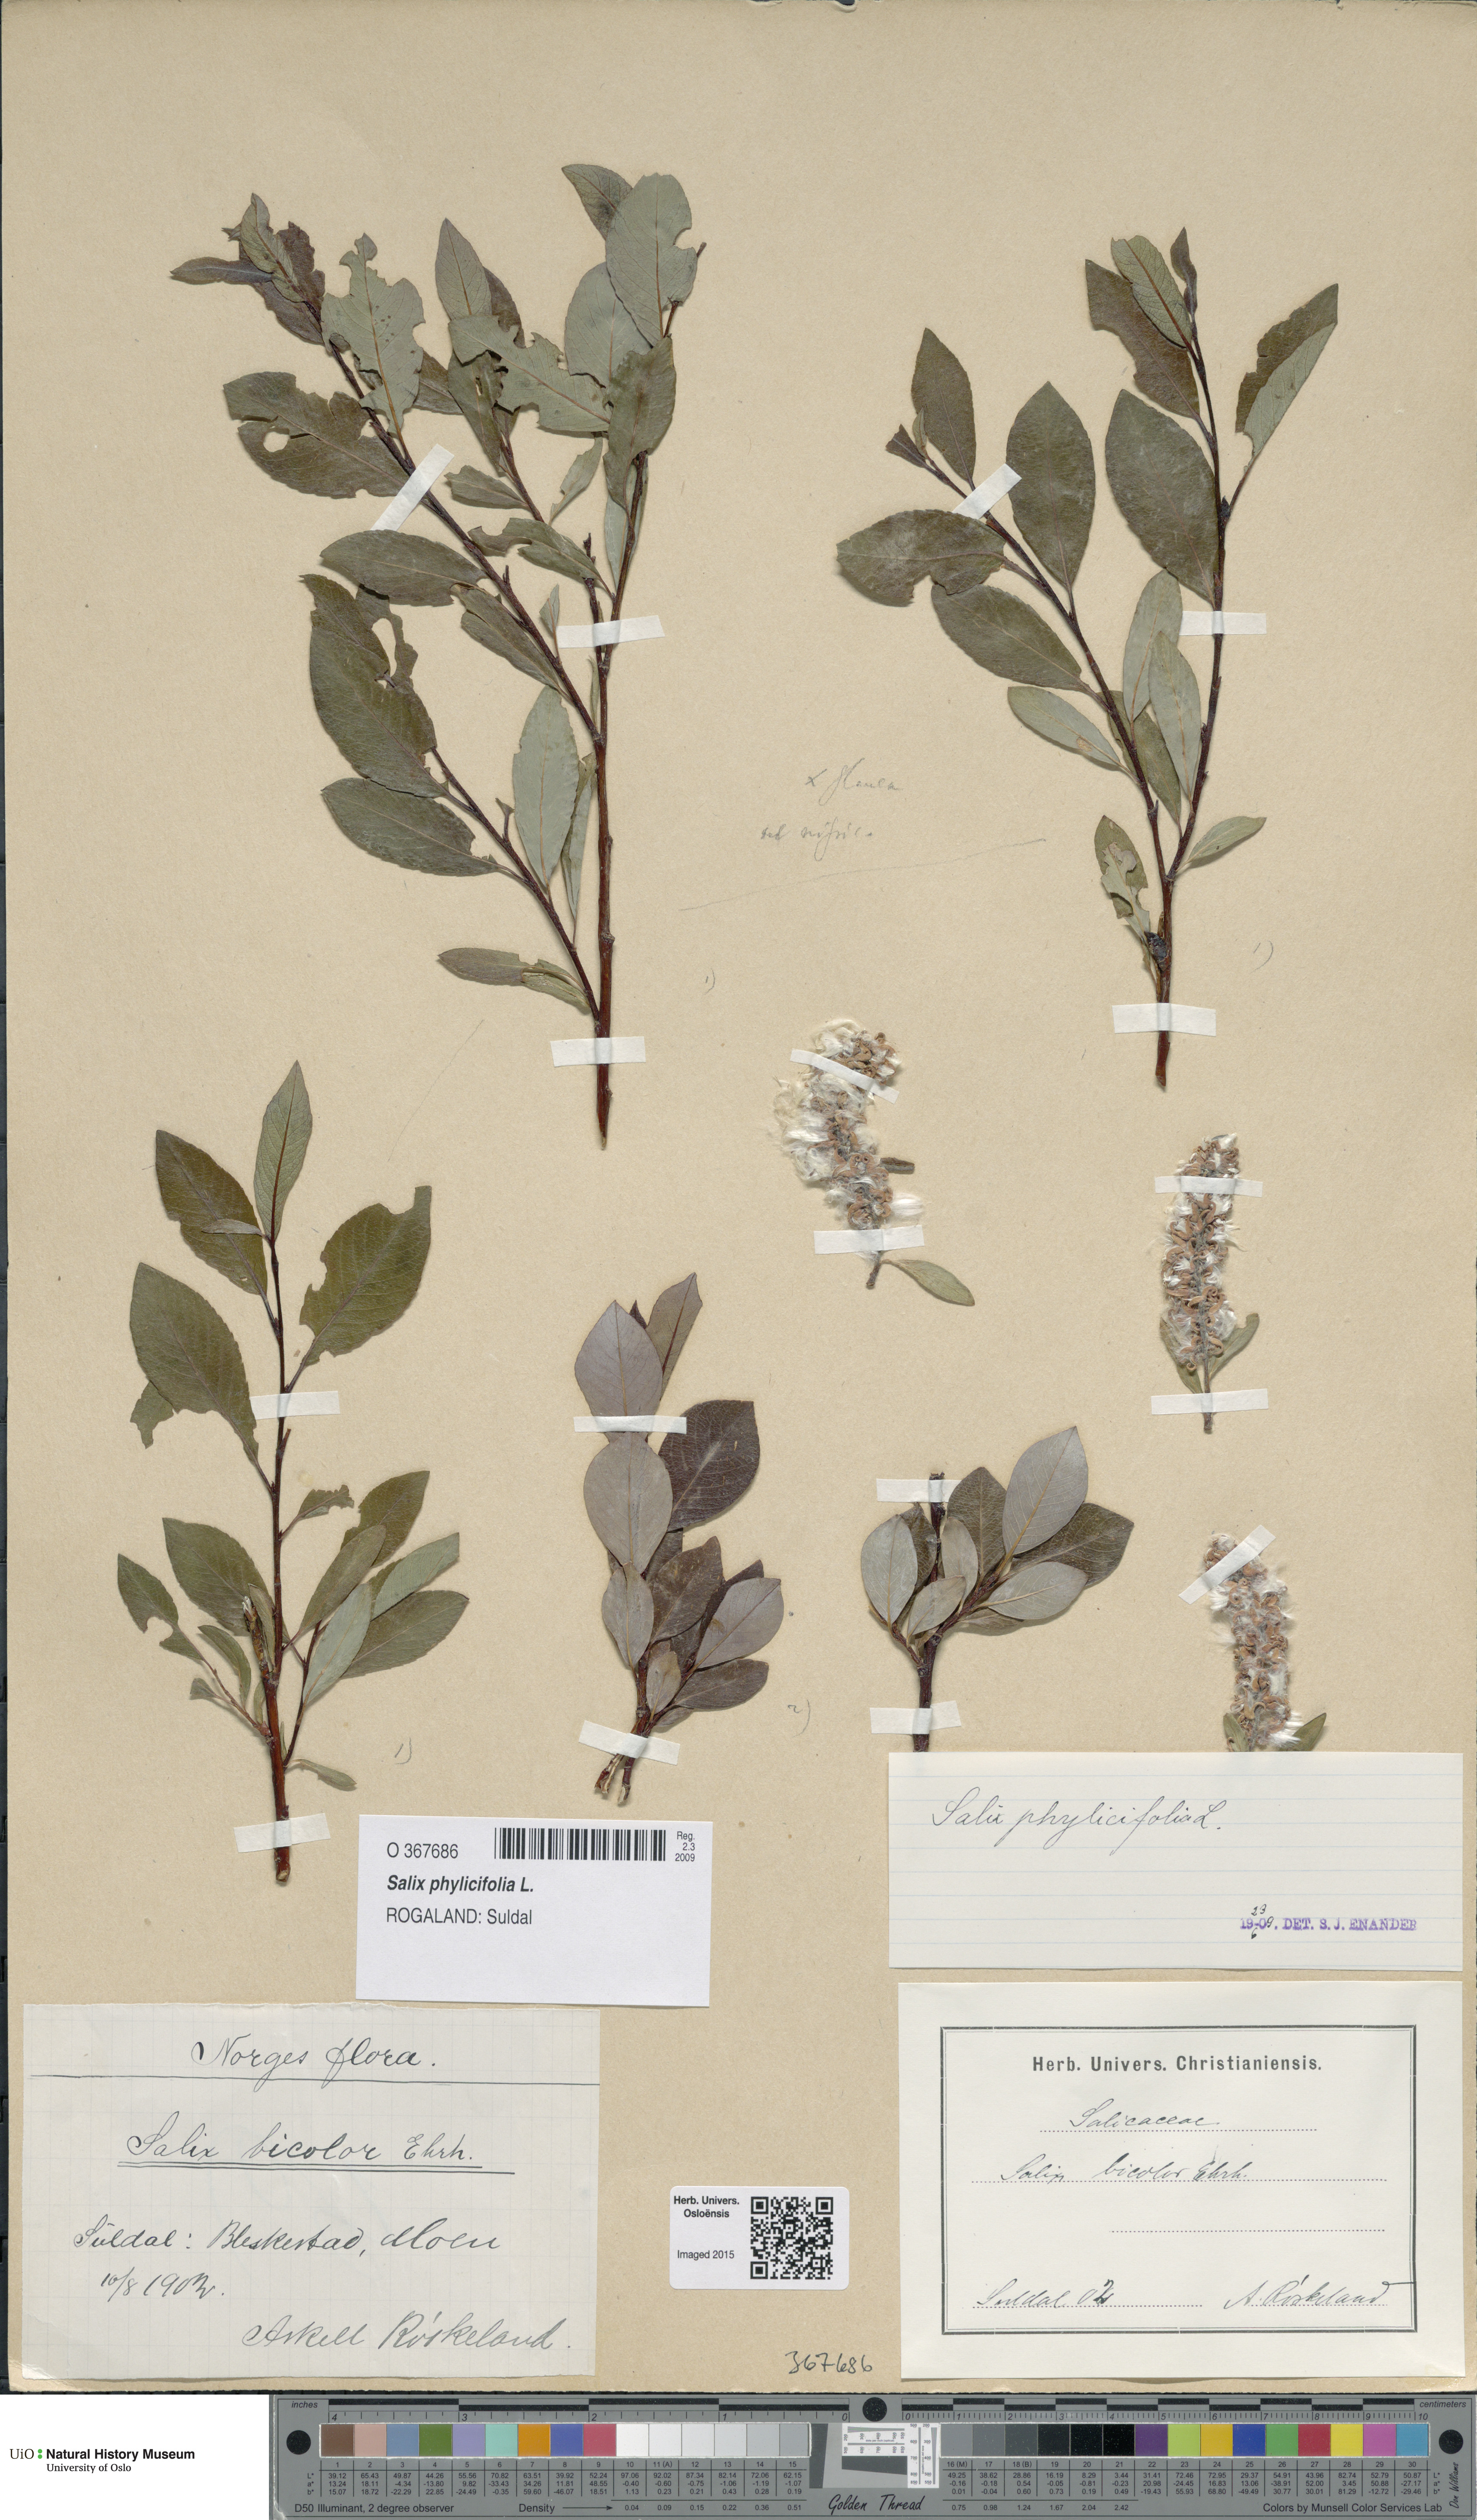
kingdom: Plantae
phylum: Tracheophyta
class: Magnoliopsida
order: Malpighiales
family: Salicaceae
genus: Salix
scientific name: Salix phylicifolia
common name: Tea-leaved willow
